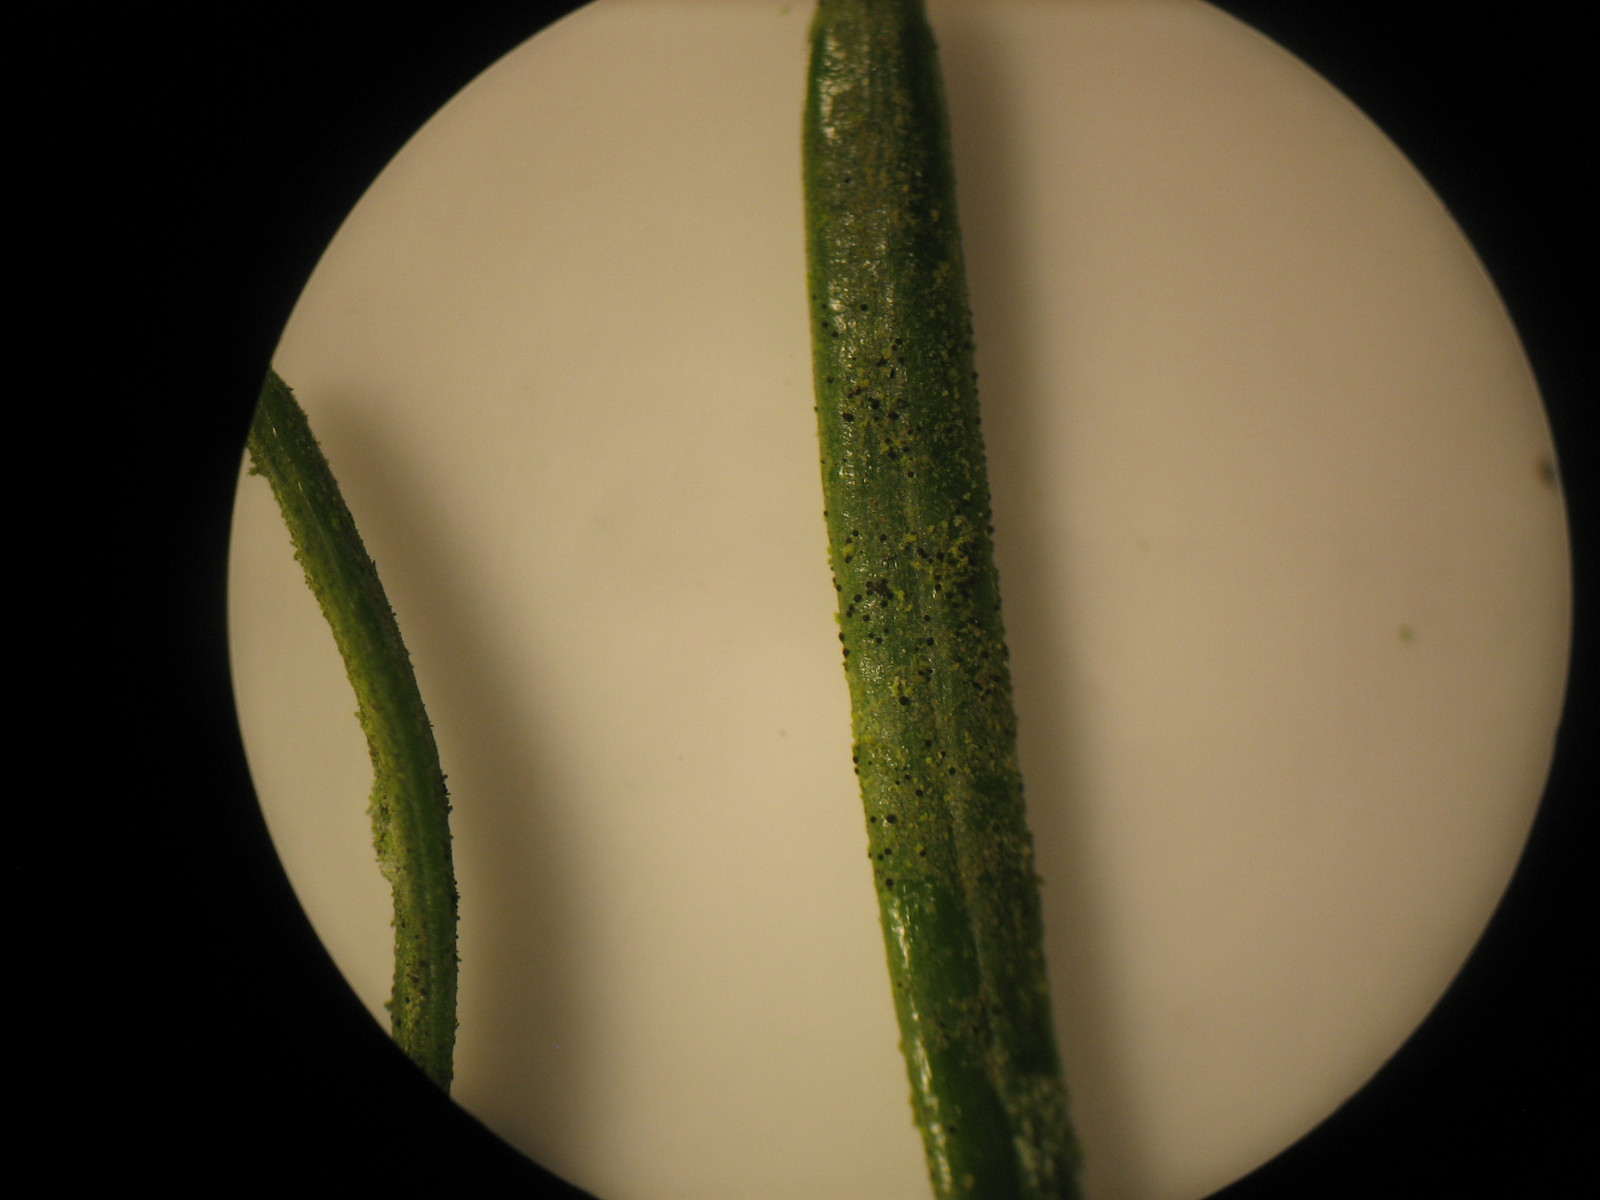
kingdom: Fungi
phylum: Ascomycota
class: Arthoniomycetes
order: Arthoniales
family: Arthoniaceae
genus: Bryostigma
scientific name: Bryostigma muscigenum
